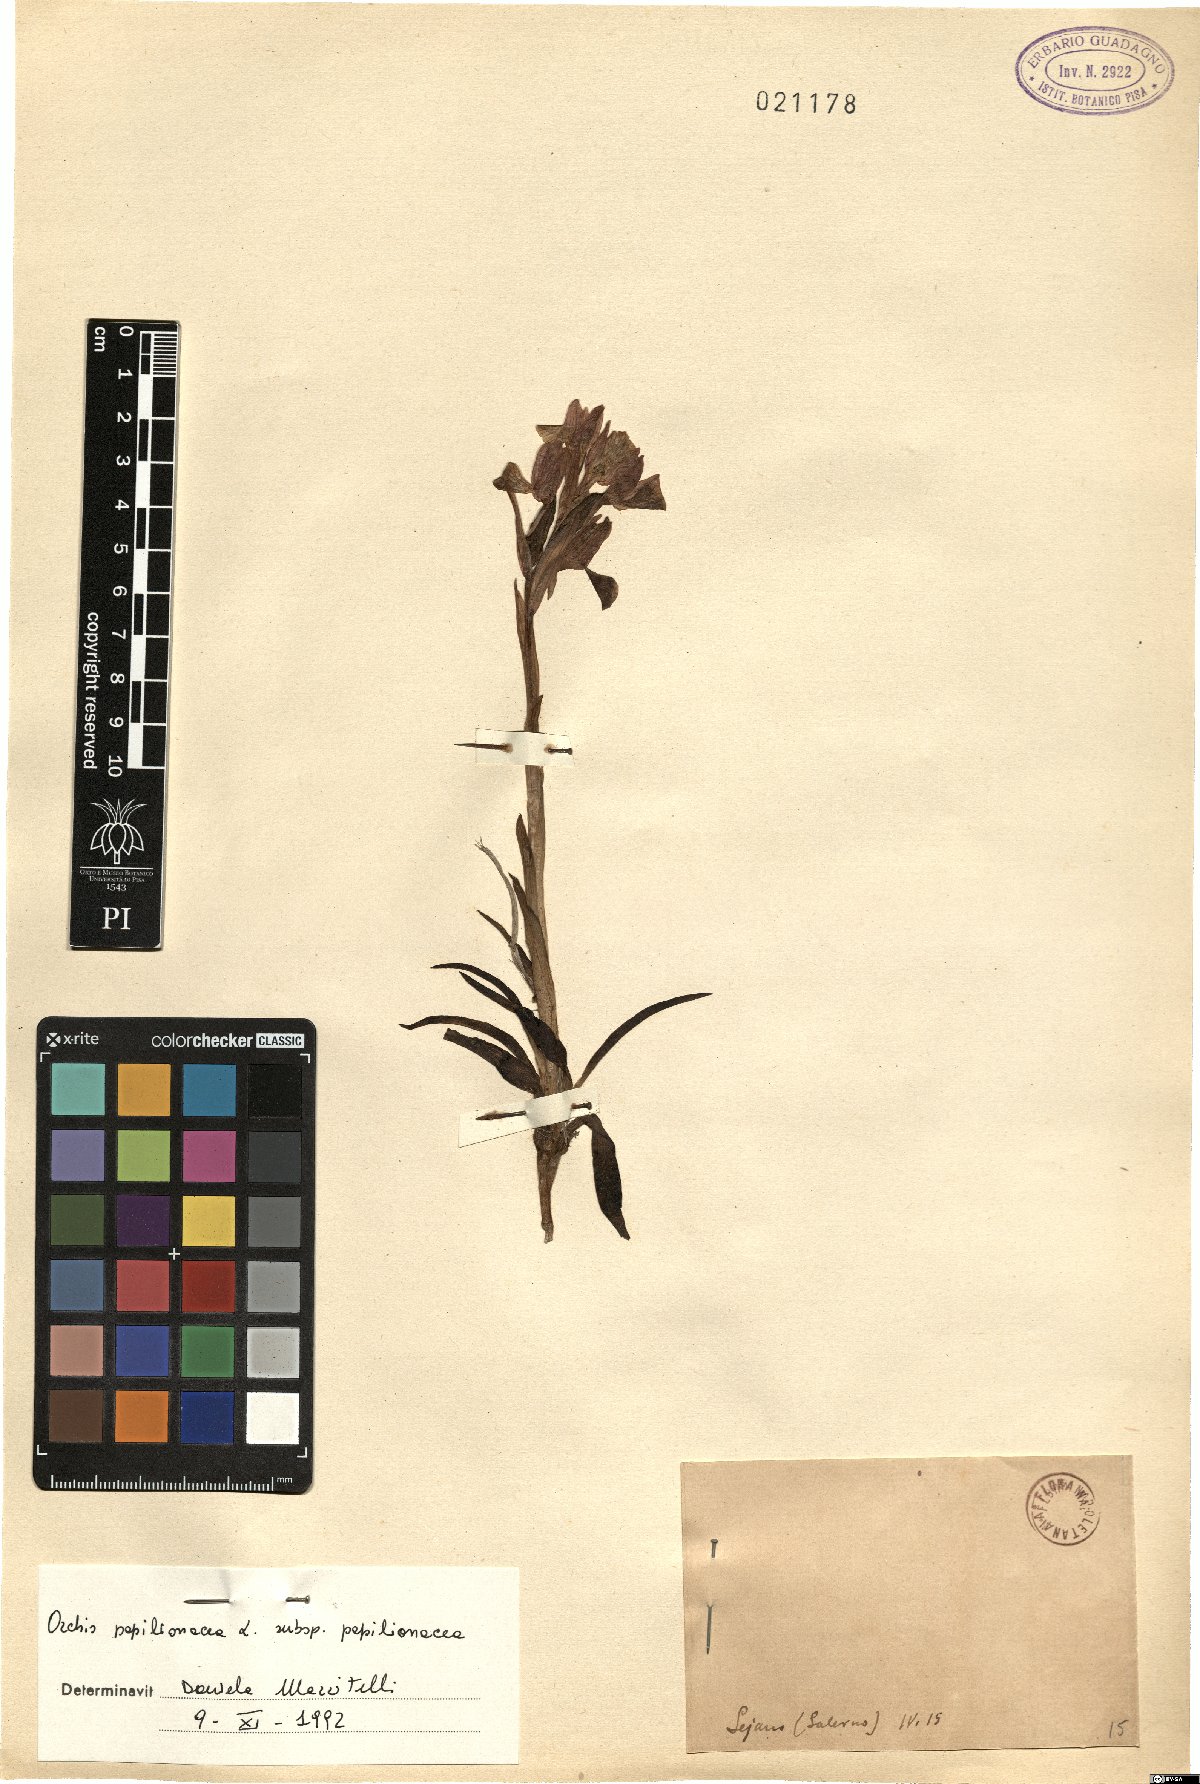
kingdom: Plantae
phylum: Tracheophyta
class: Liliopsida
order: Asparagales
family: Orchidaceae
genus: Anacamptis
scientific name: Anacamptis papilionacea
